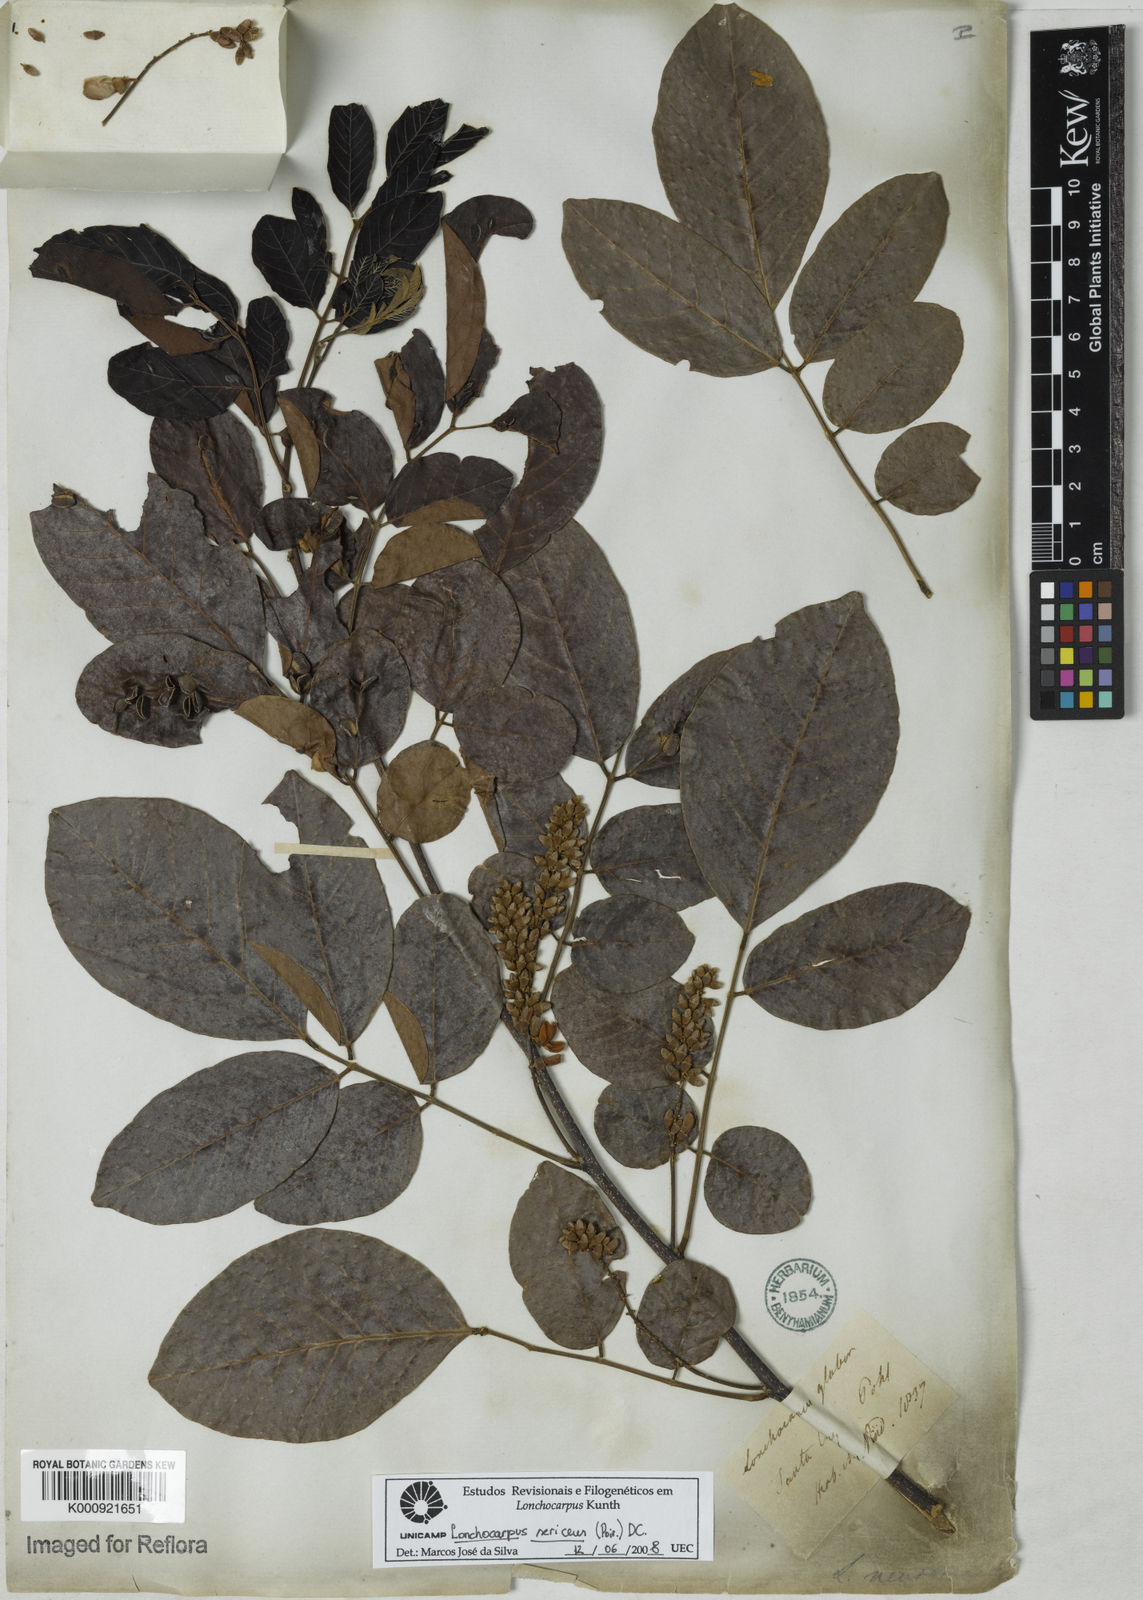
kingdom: Plantae
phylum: Tracheophyta
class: Magnoliopsida
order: Fabales
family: Fabaceae
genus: Lonchocarpus
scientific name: Lonchocarpus sericeus
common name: Savonette
